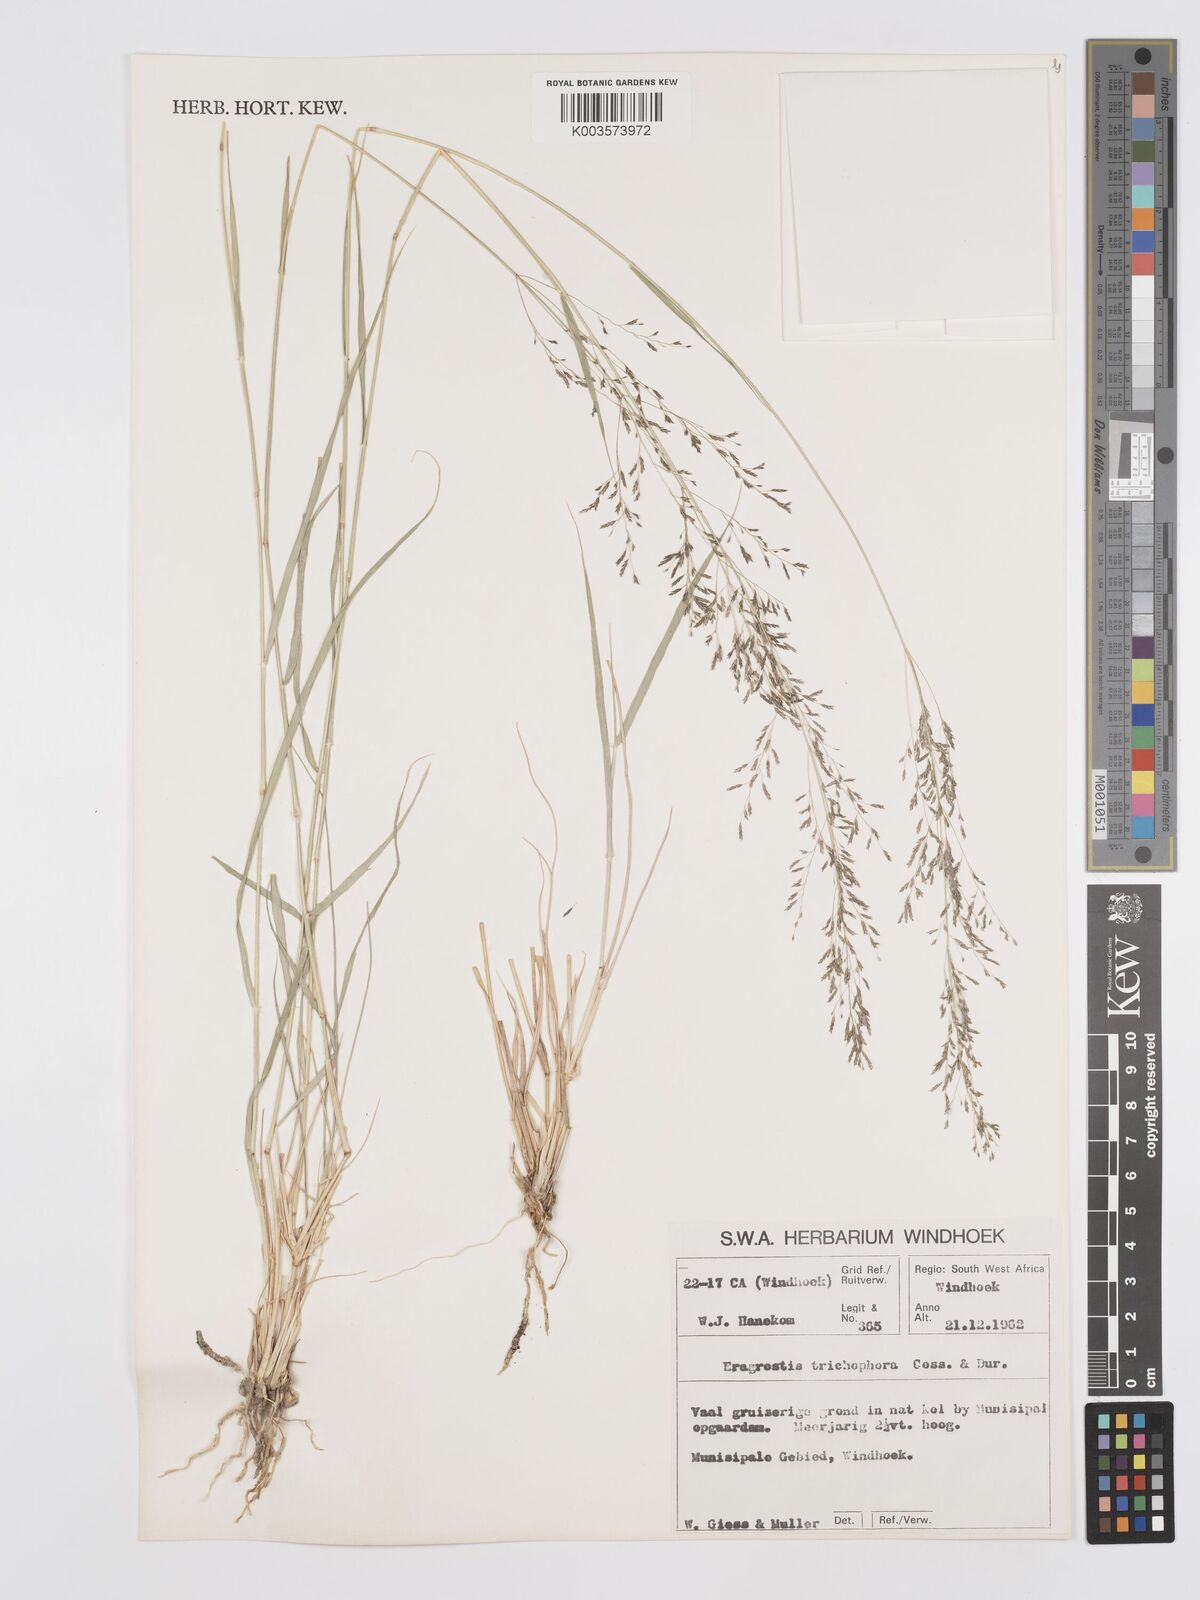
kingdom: Plantae
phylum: Tracheophyta
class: Liliopsida
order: Poales
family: Poaceae
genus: Eragrostis
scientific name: Eragrostis cylindriflora
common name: Cylinderflower lovegrass
